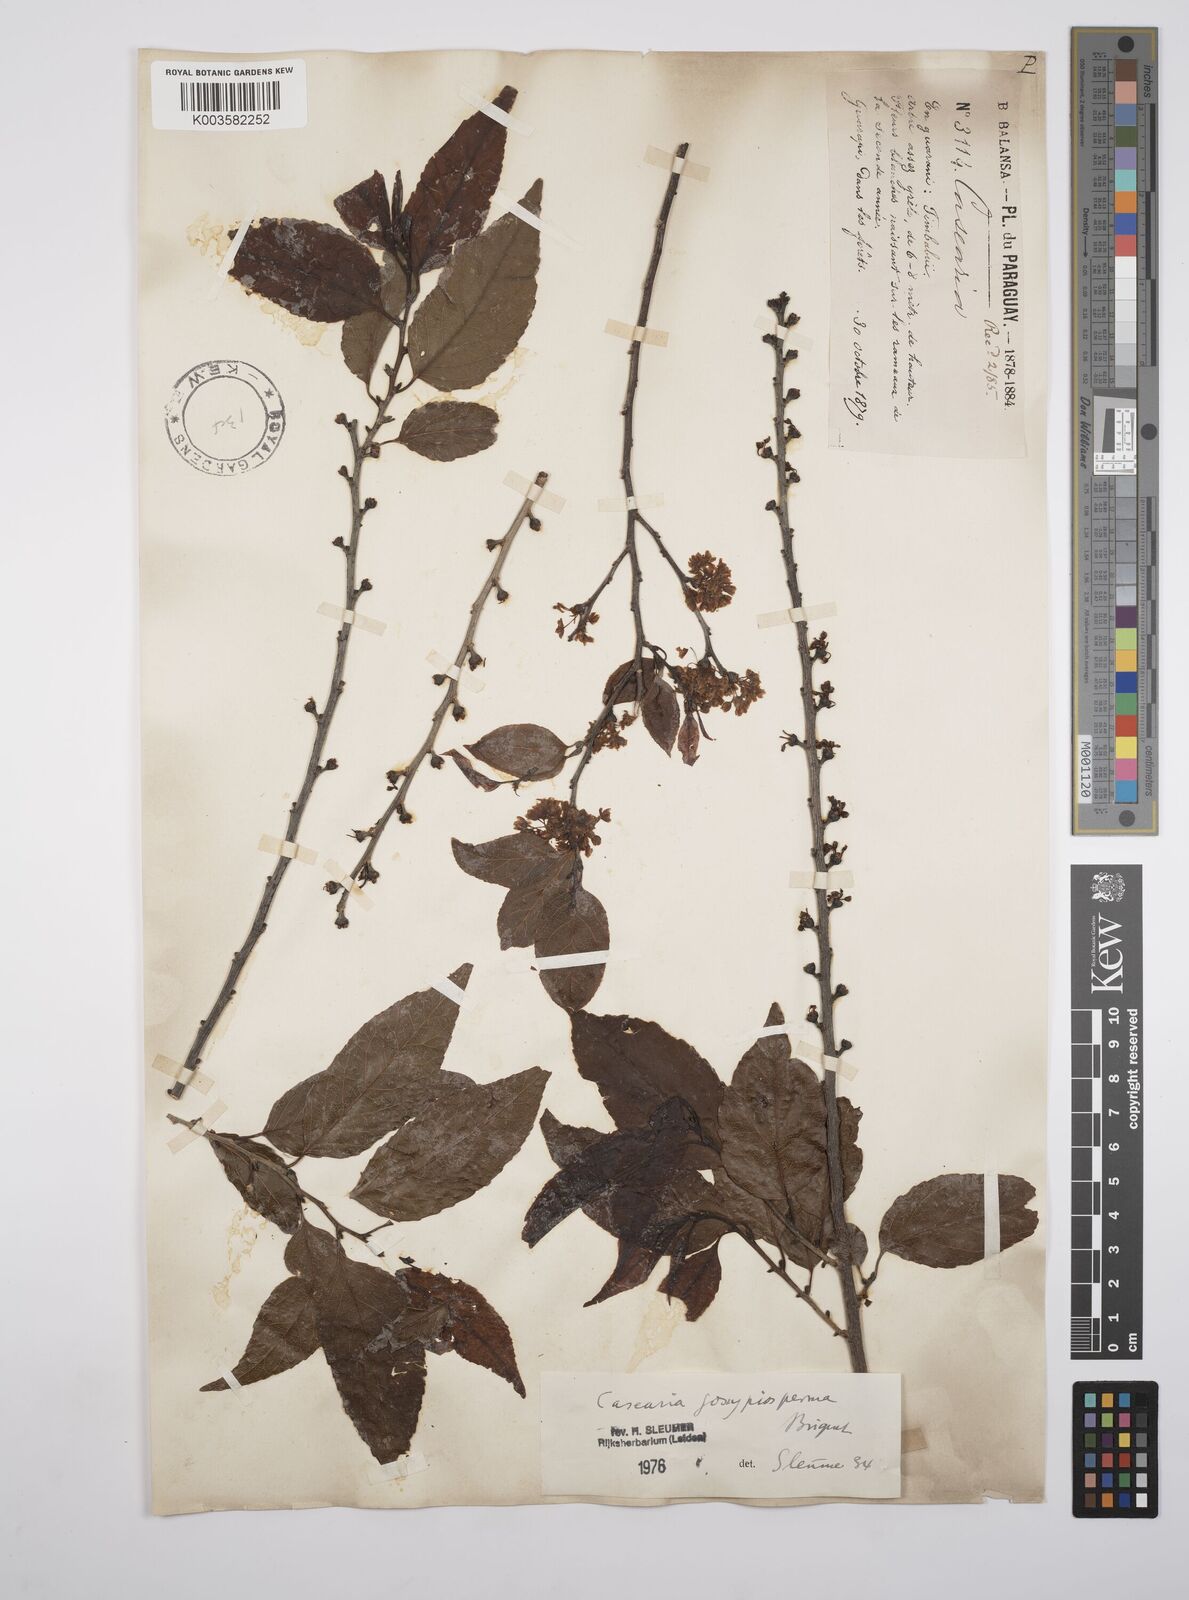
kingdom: Plantae
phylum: Tracheophyta
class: Magnoliopsida
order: Malpighiales
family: Salicaceae
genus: Casearia
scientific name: Casearia gossypiosperma
